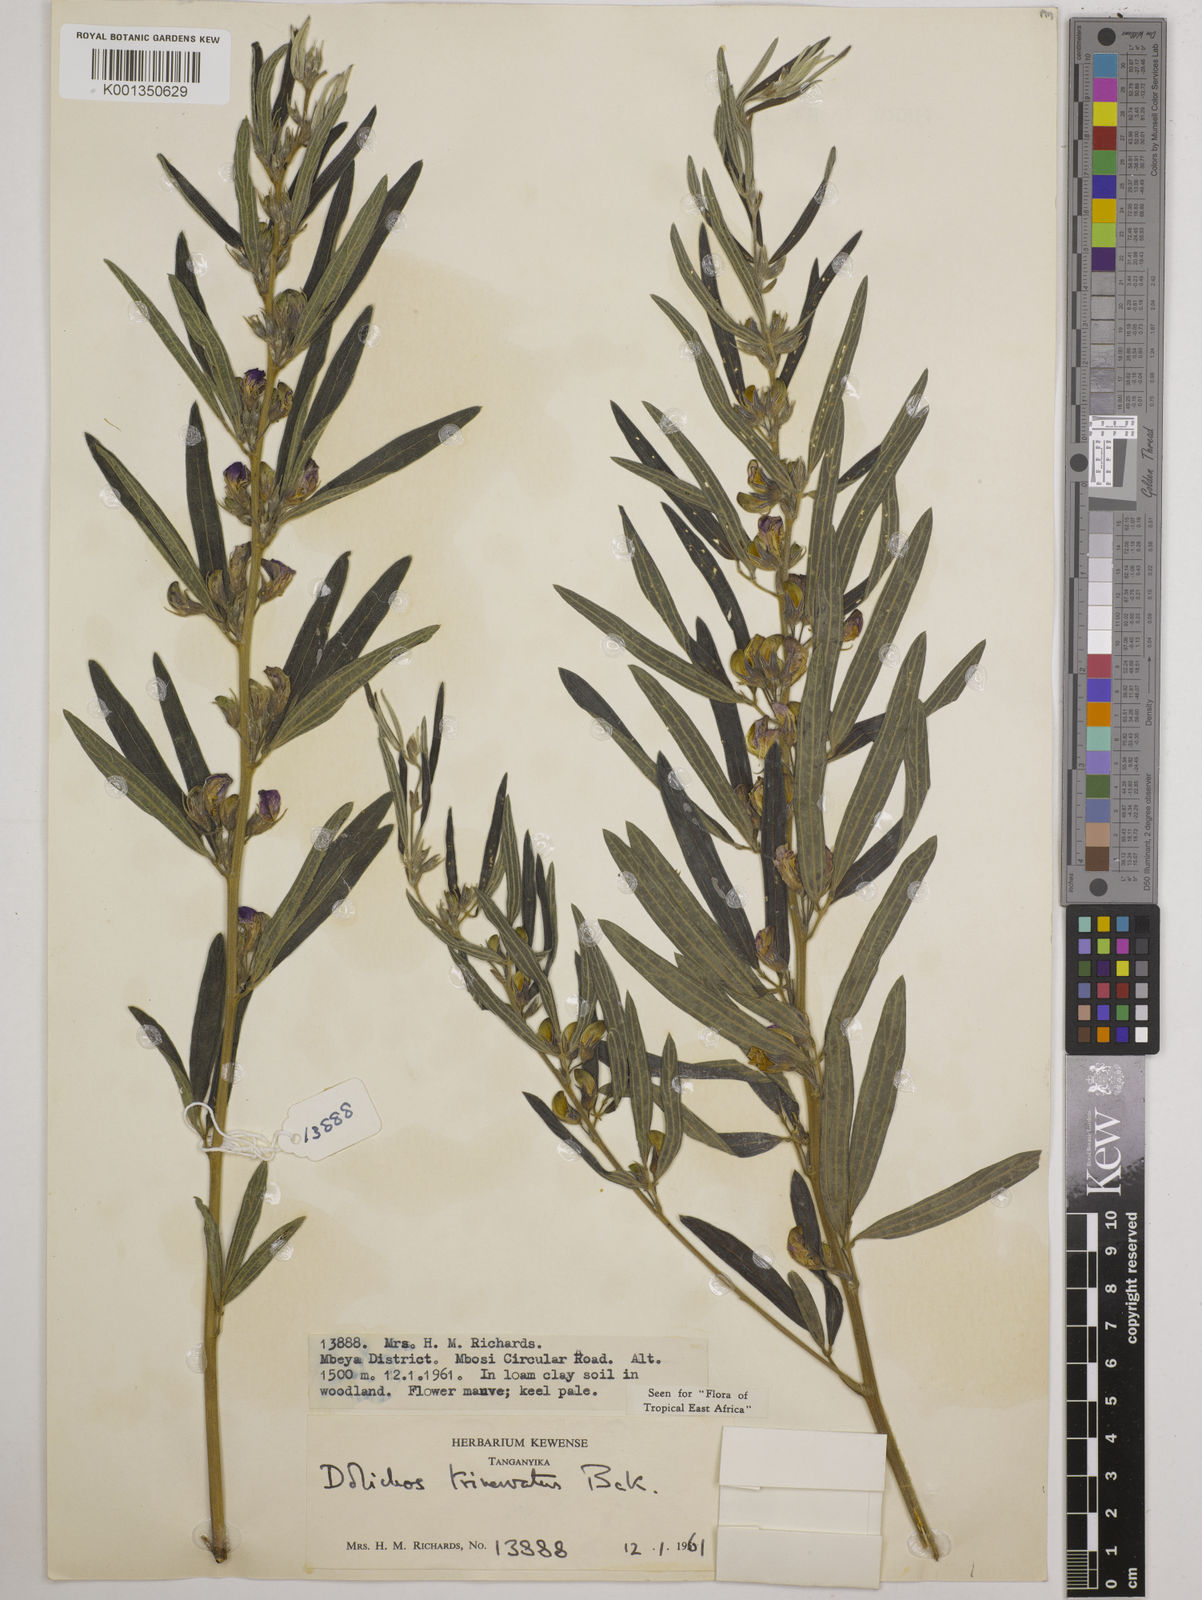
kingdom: Plantae
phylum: Tracheophyta
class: Magnoliopsida
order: Fabales
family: Fabaceae
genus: Dolichos
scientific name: Dolichos trinervatus
